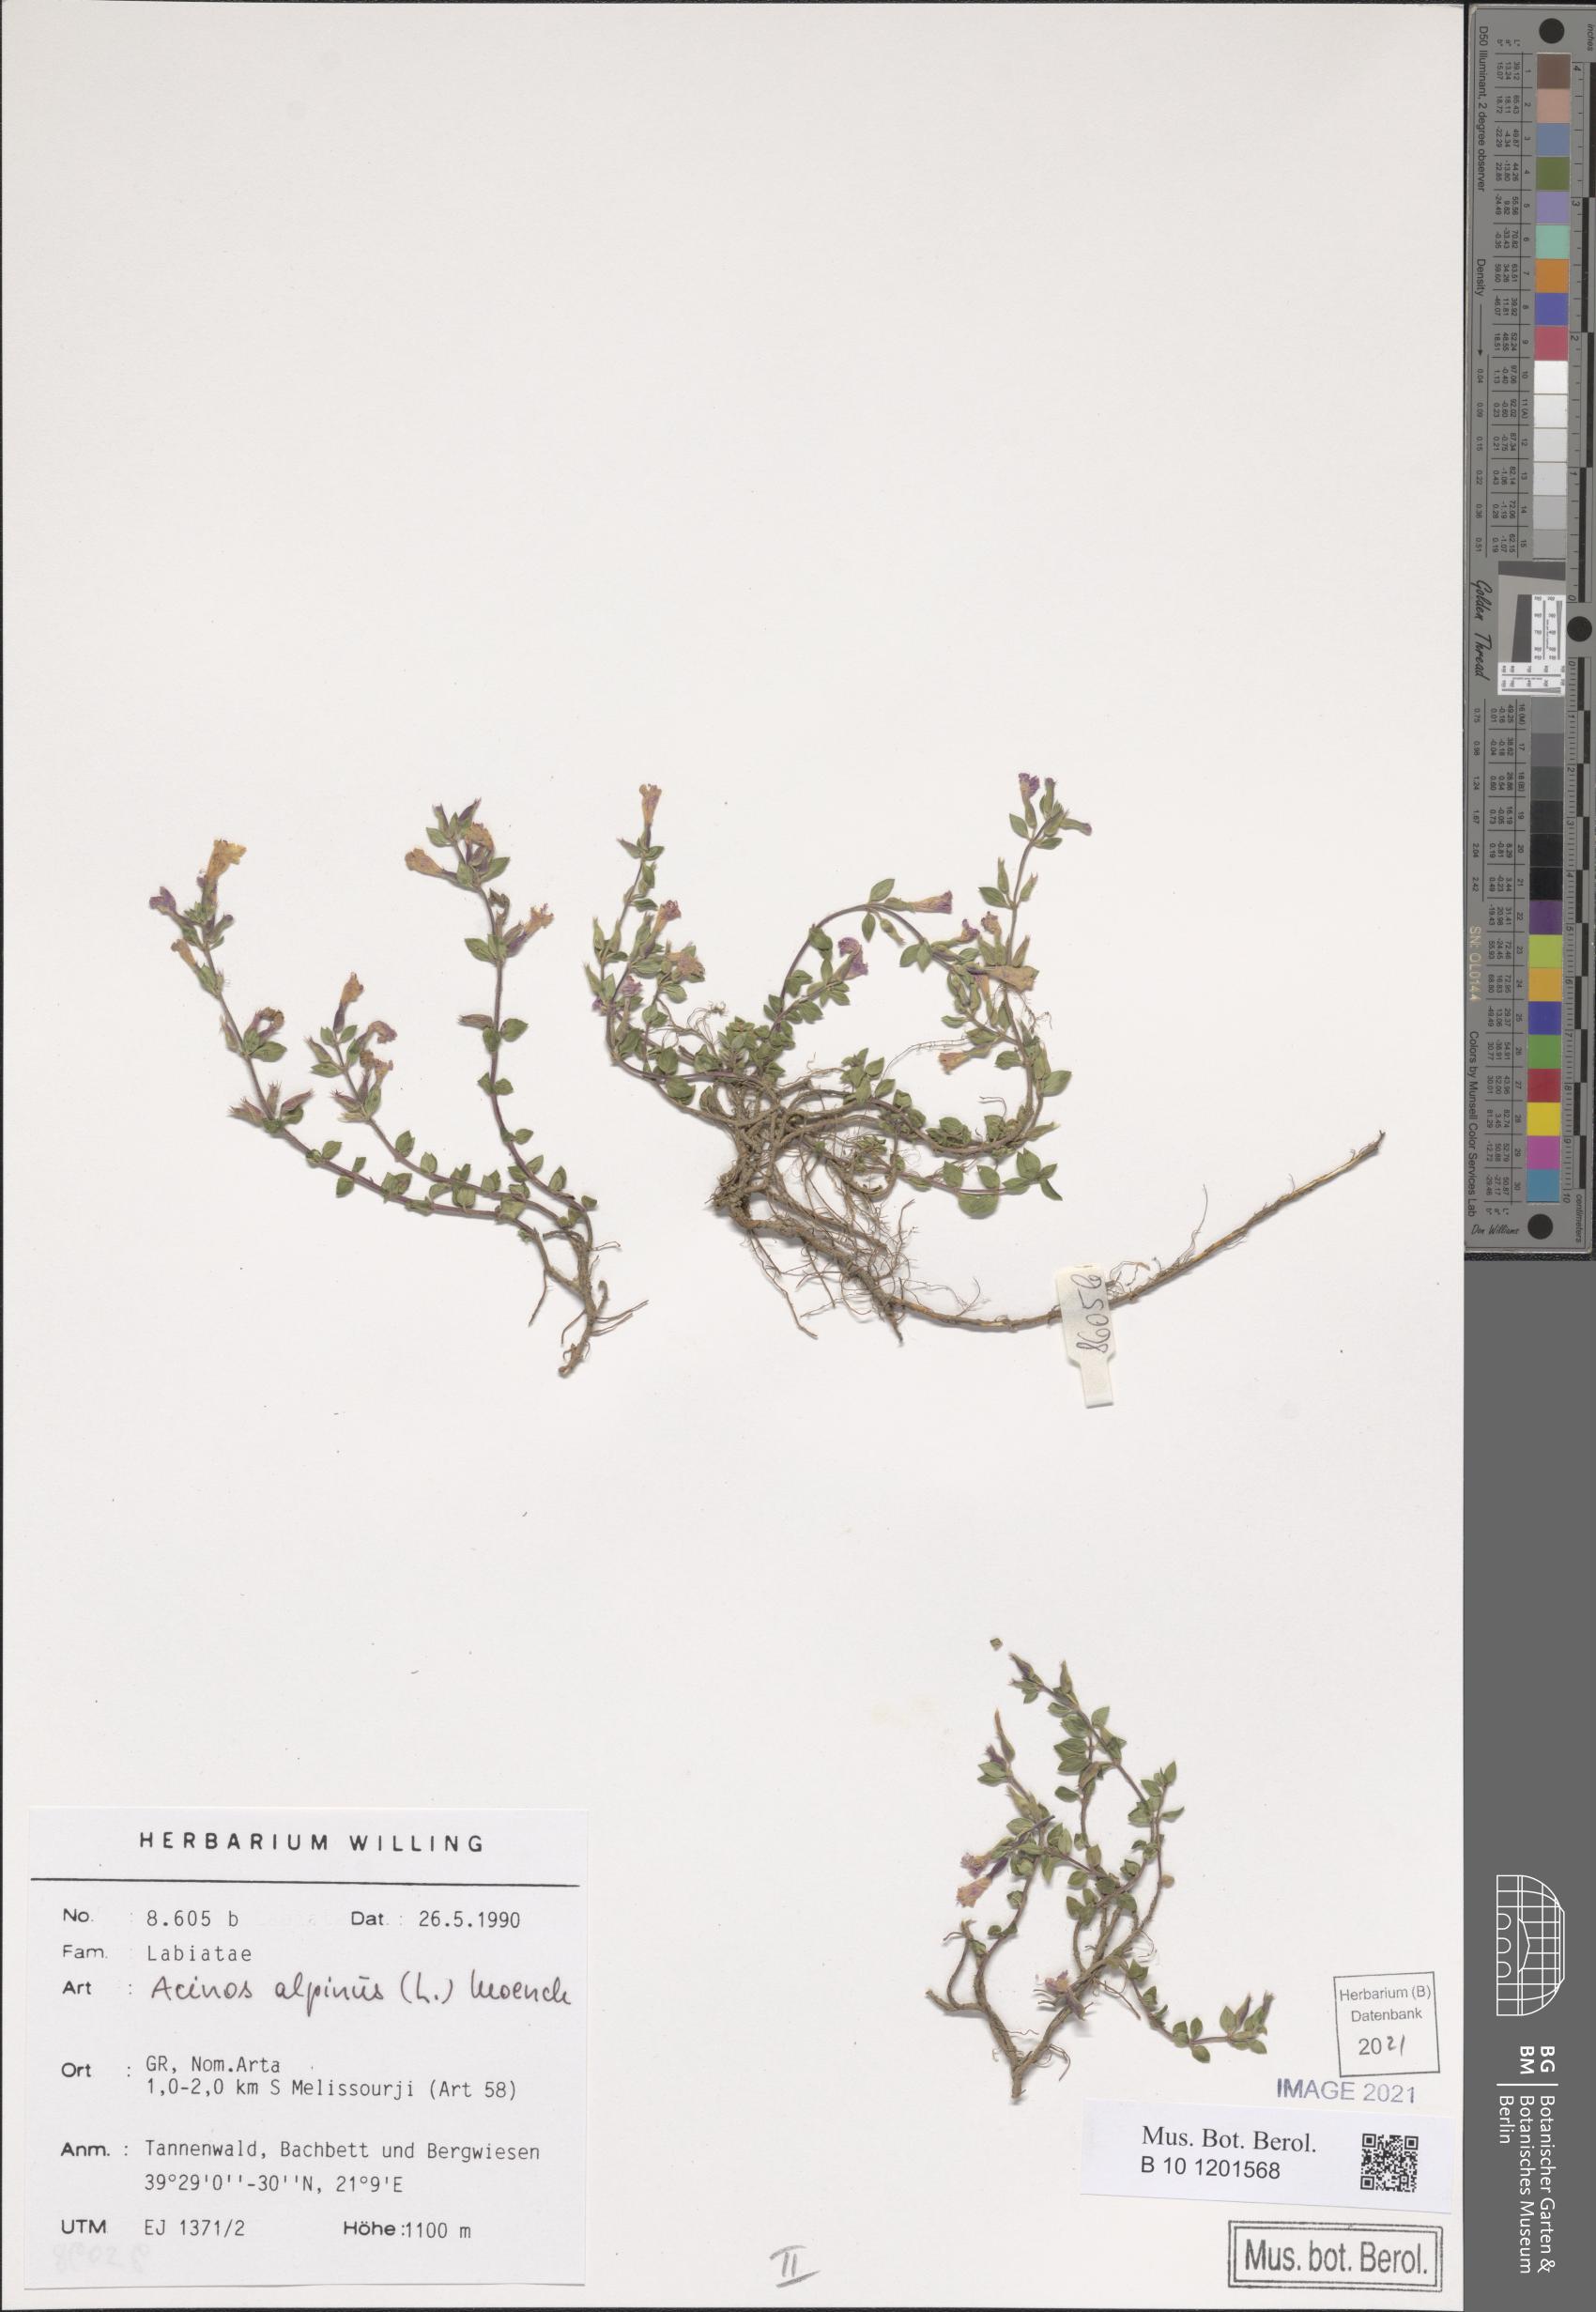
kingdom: Plantae
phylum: Tracheophyta
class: Magnoliopsida
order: Lamiales
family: Lamiaceae
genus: Clinopodium
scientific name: Clinopodium alpinum
